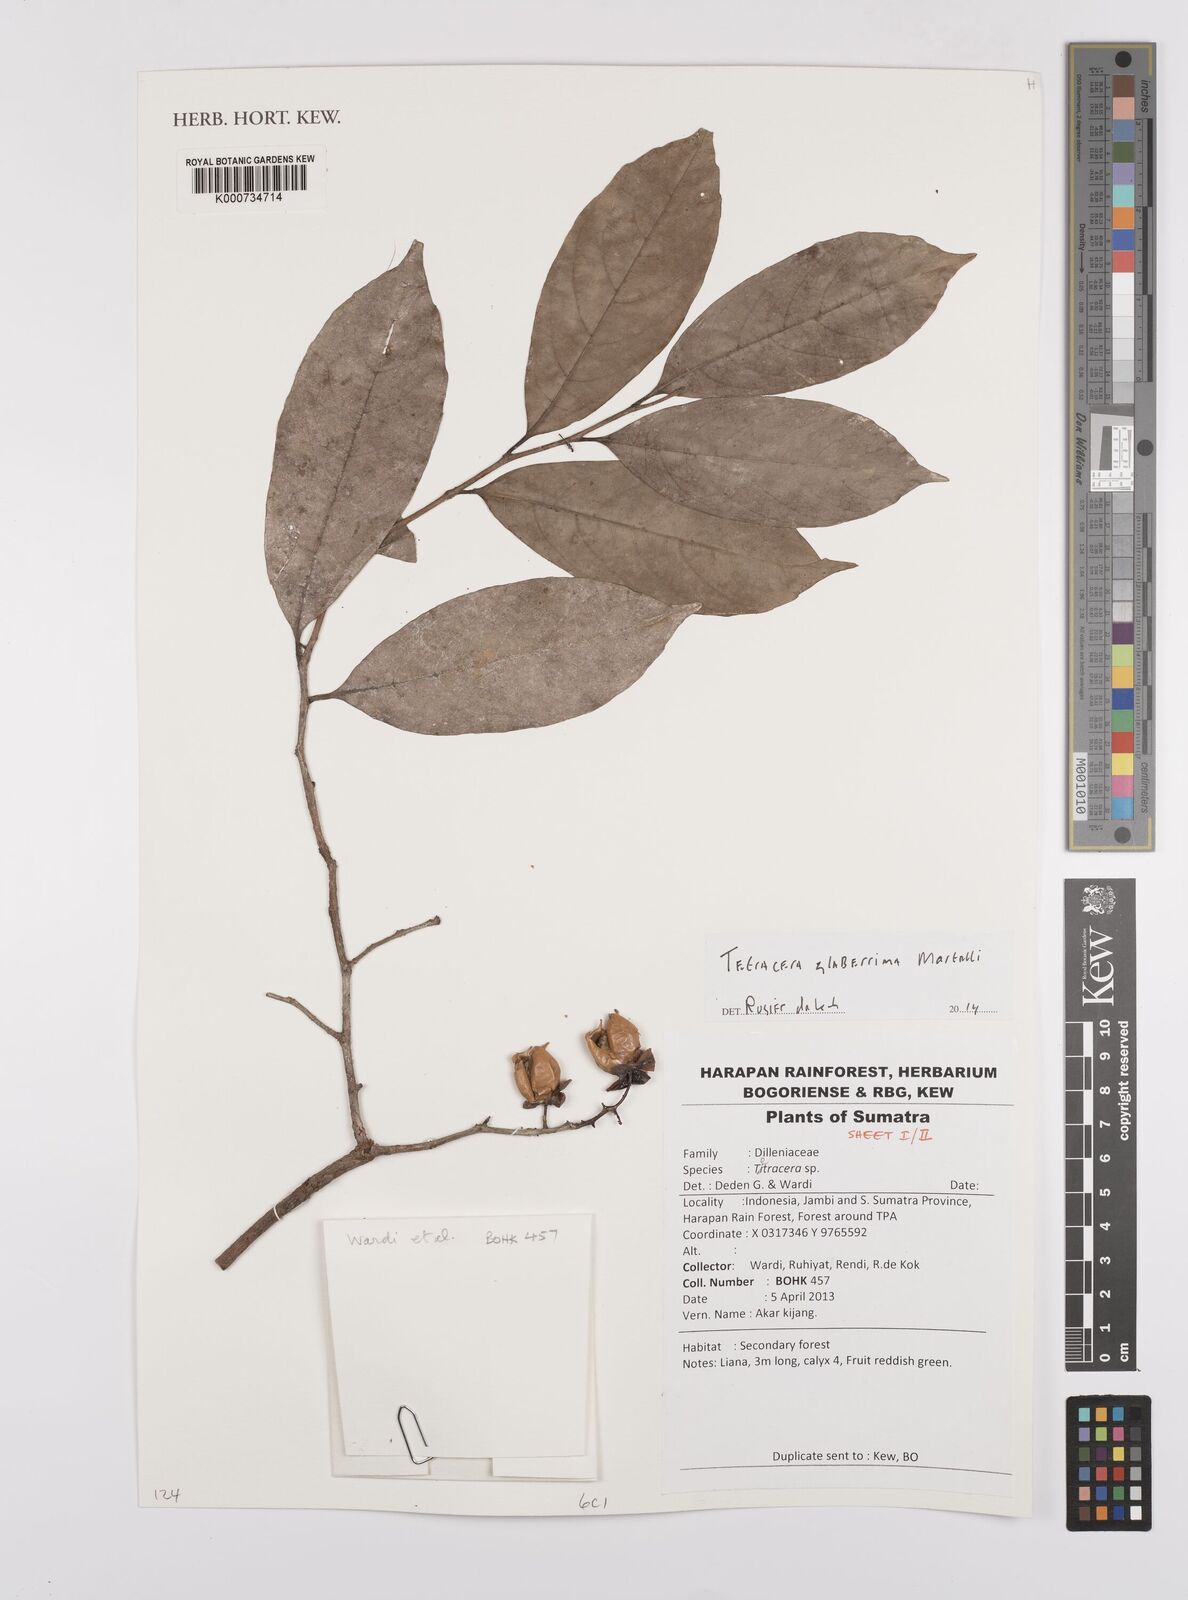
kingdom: Plantae
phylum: Tracheophyta
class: Magnoliopsida
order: Dilleniales
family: Dilleniaceae
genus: Tetracera
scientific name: Tetracera glaberrima
